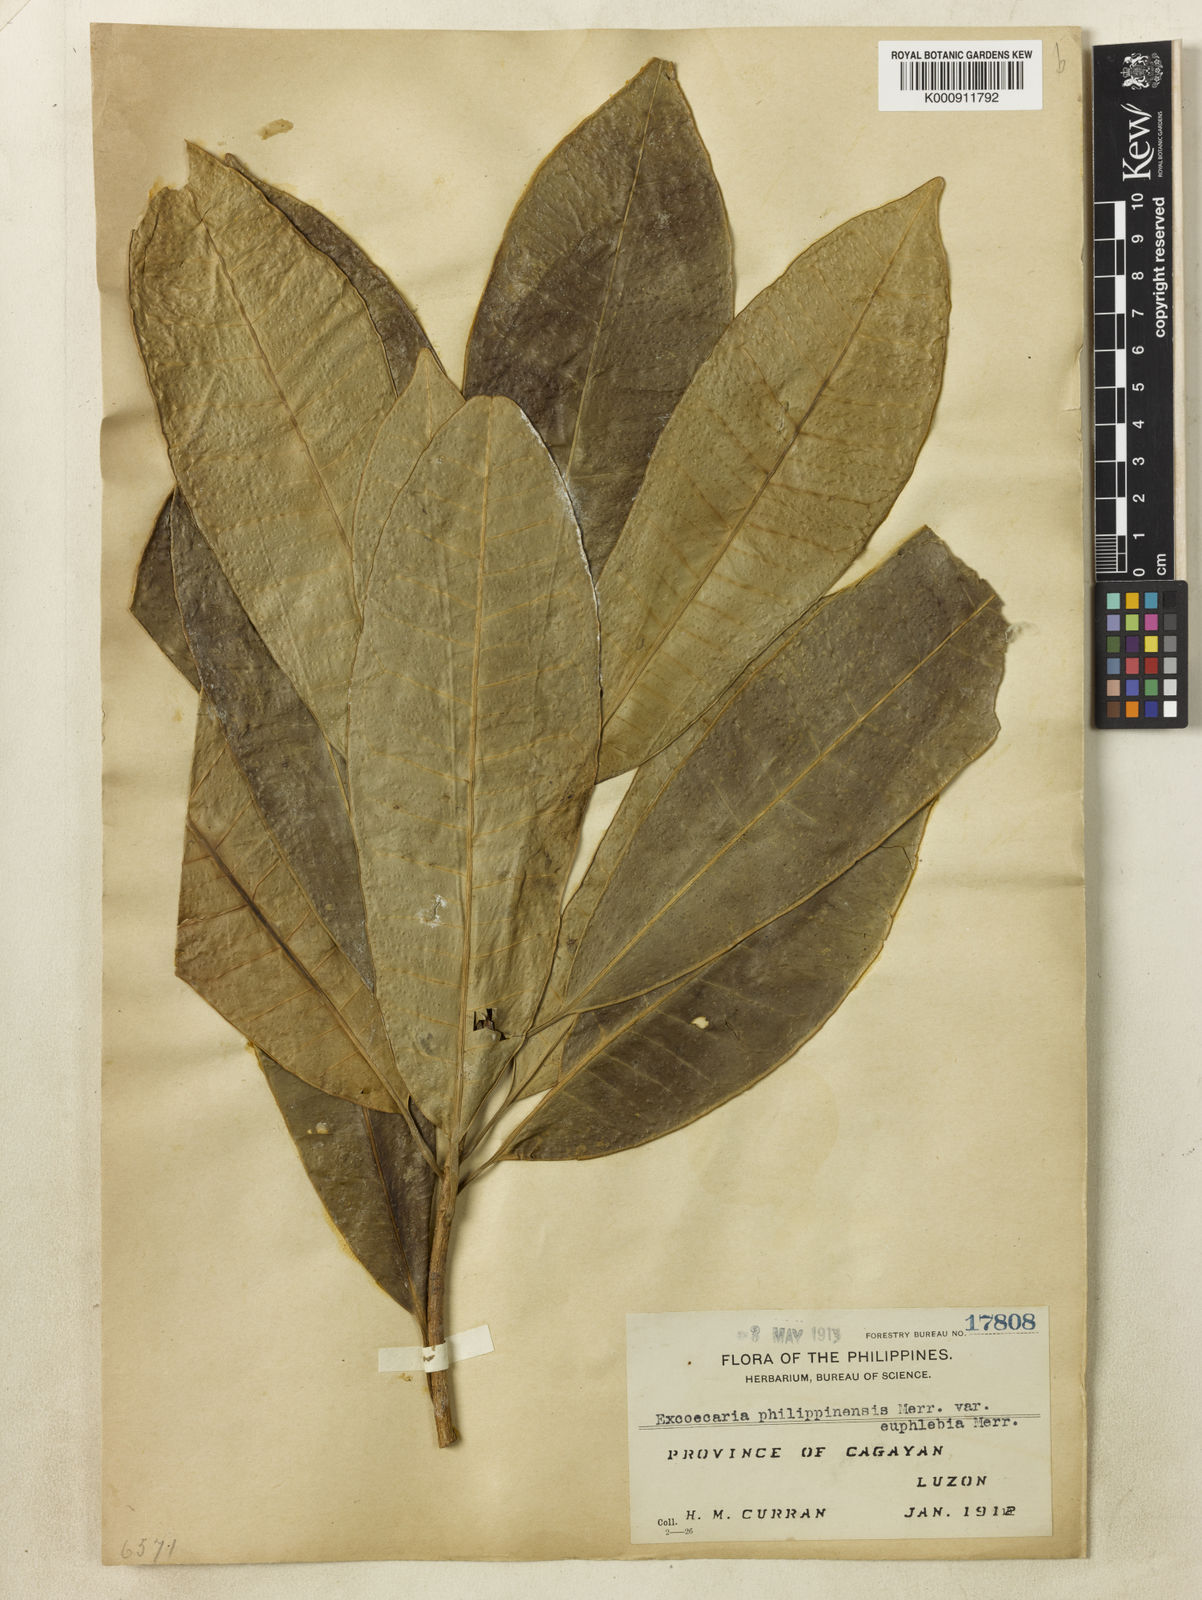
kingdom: Plantae
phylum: Tracheophyta
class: Magnoliopsida
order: Malpighiales
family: Euphorbiaceae
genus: Excoecaria
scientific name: Excoecaria philippinensis
